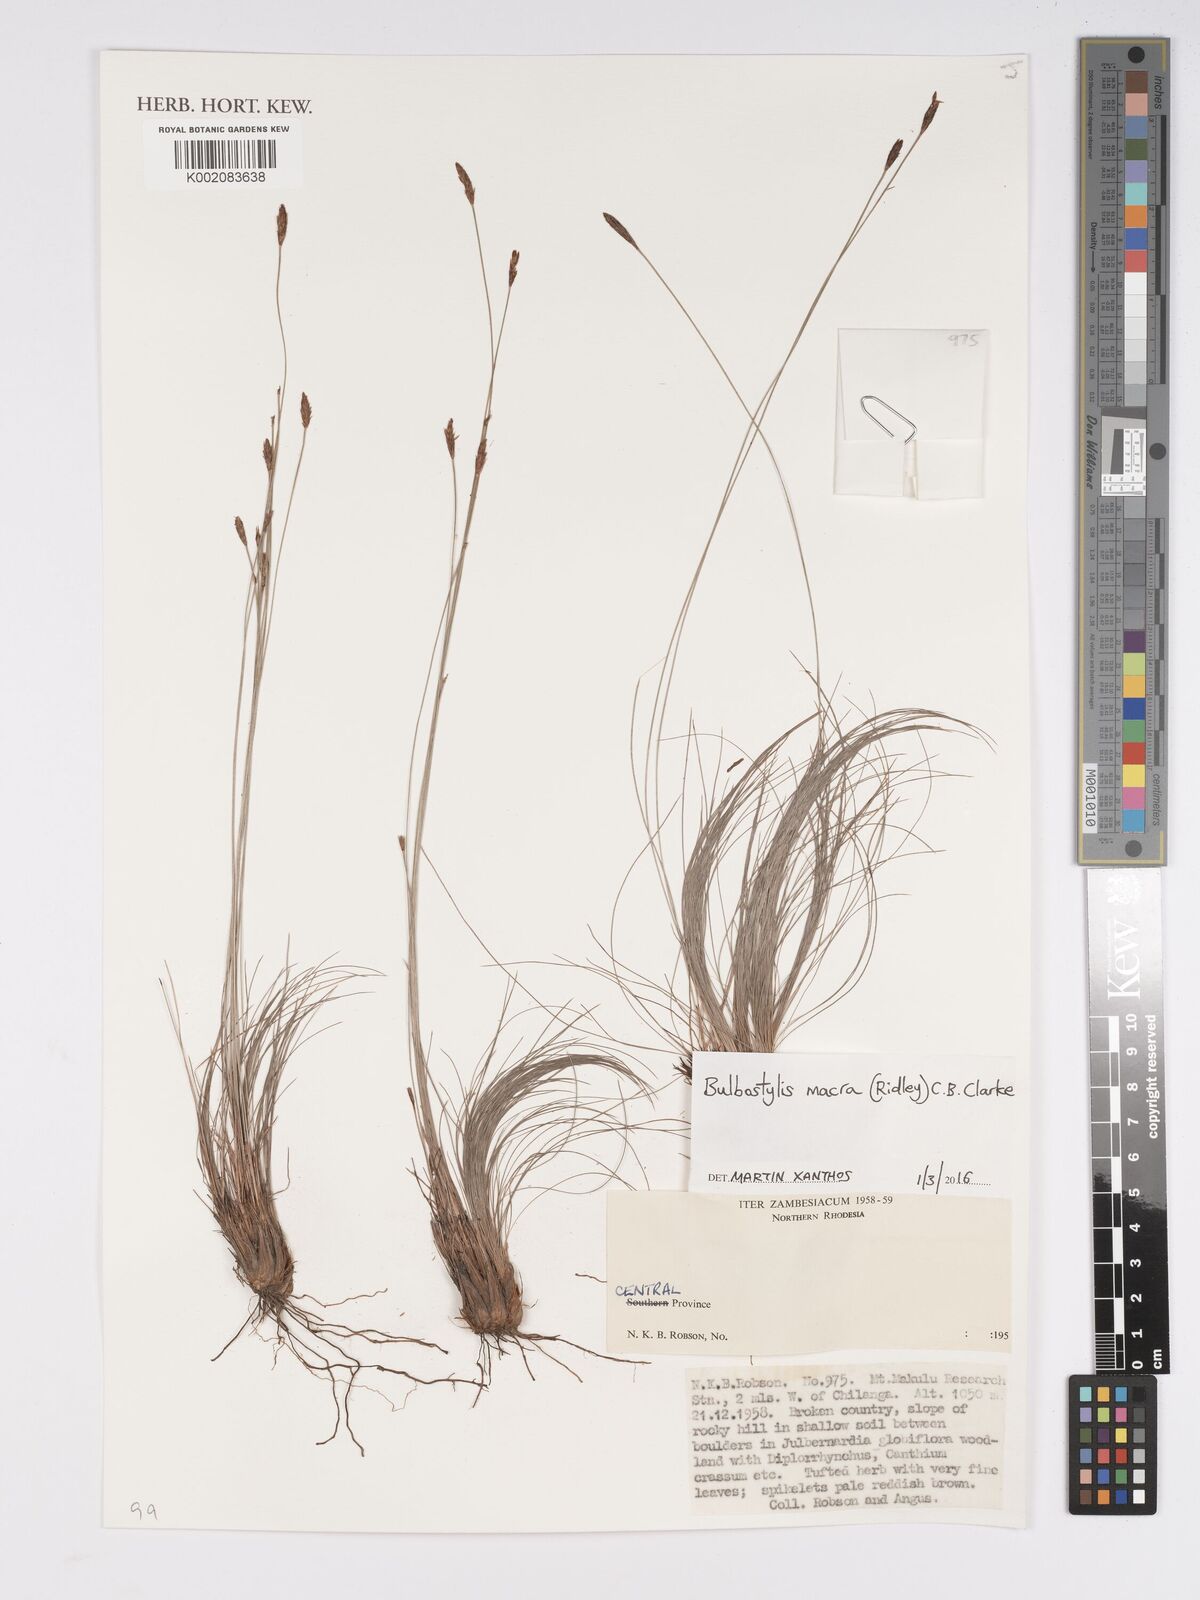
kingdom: Plantae
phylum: Tracheophyta
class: Liliopsida
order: Poales
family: Cyperaceae
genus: Bulbostylis
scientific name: Bulbostylis macra
